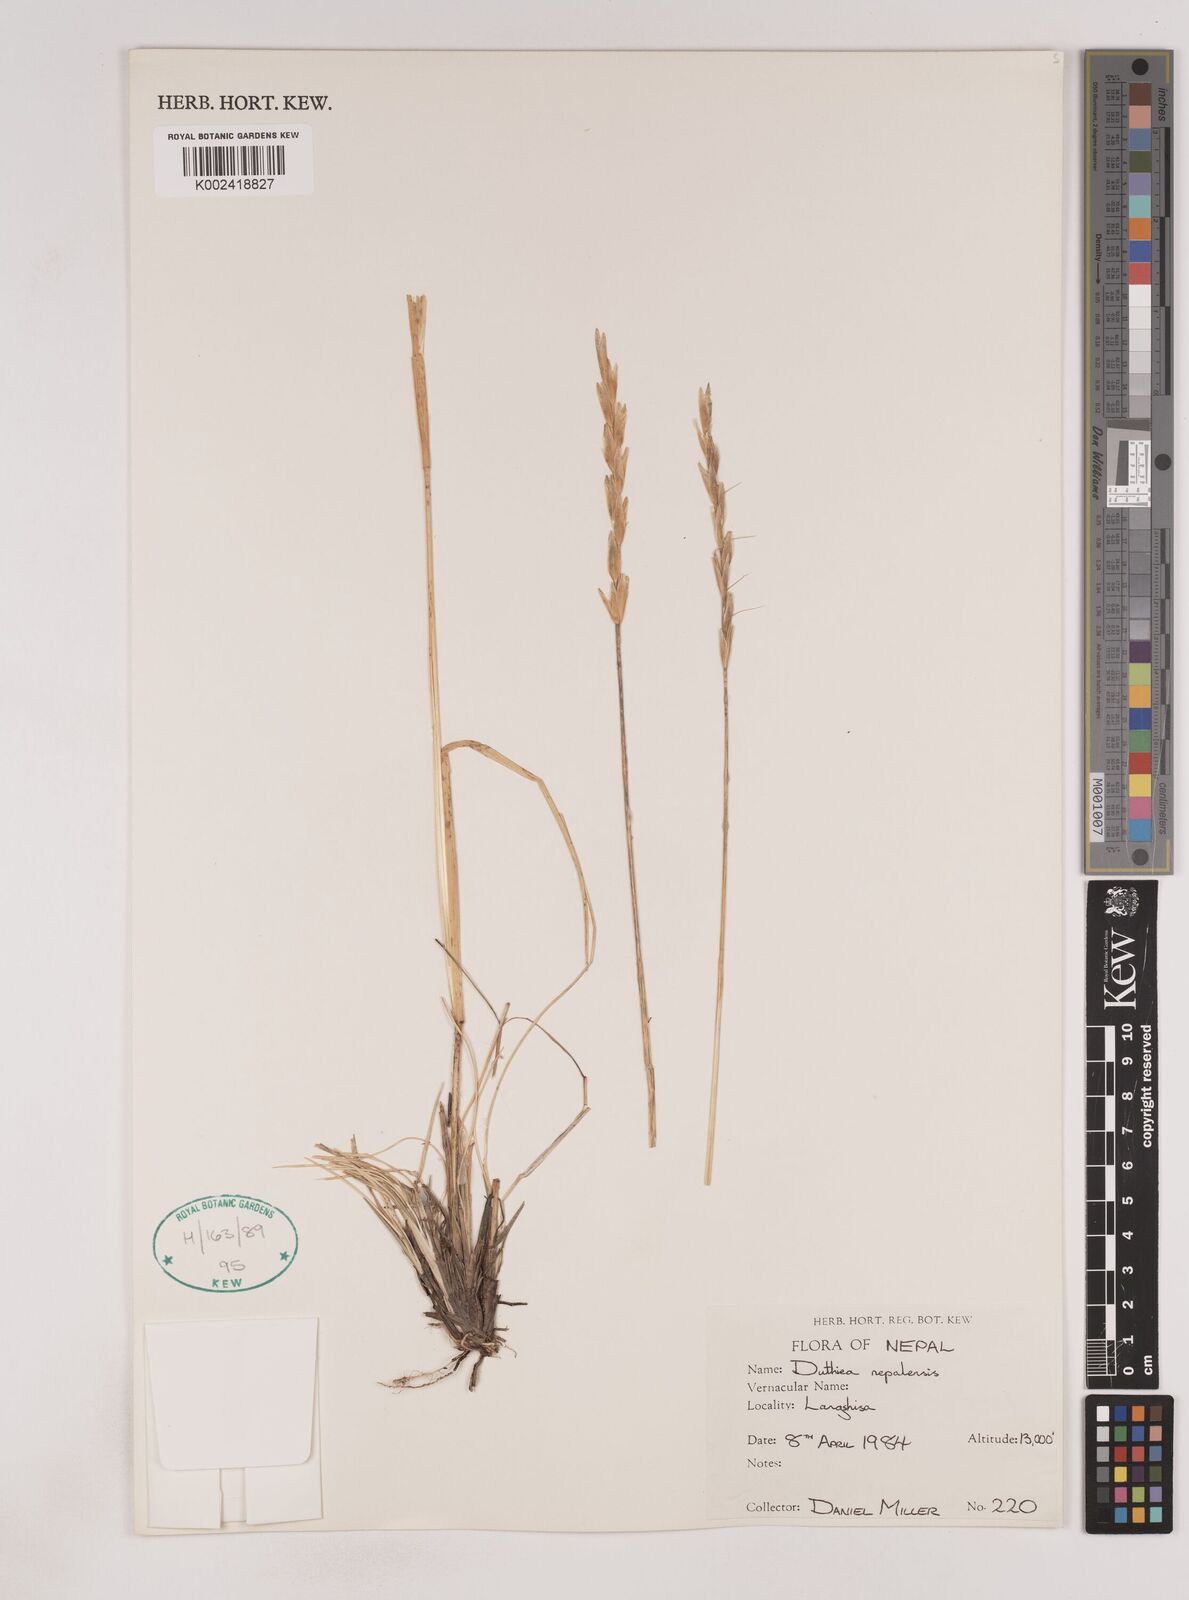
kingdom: Plantae
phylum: Tracheophyta
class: Liliopsida
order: Poales
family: Poaceae
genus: Duthiea
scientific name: Duthiea brachypodium
